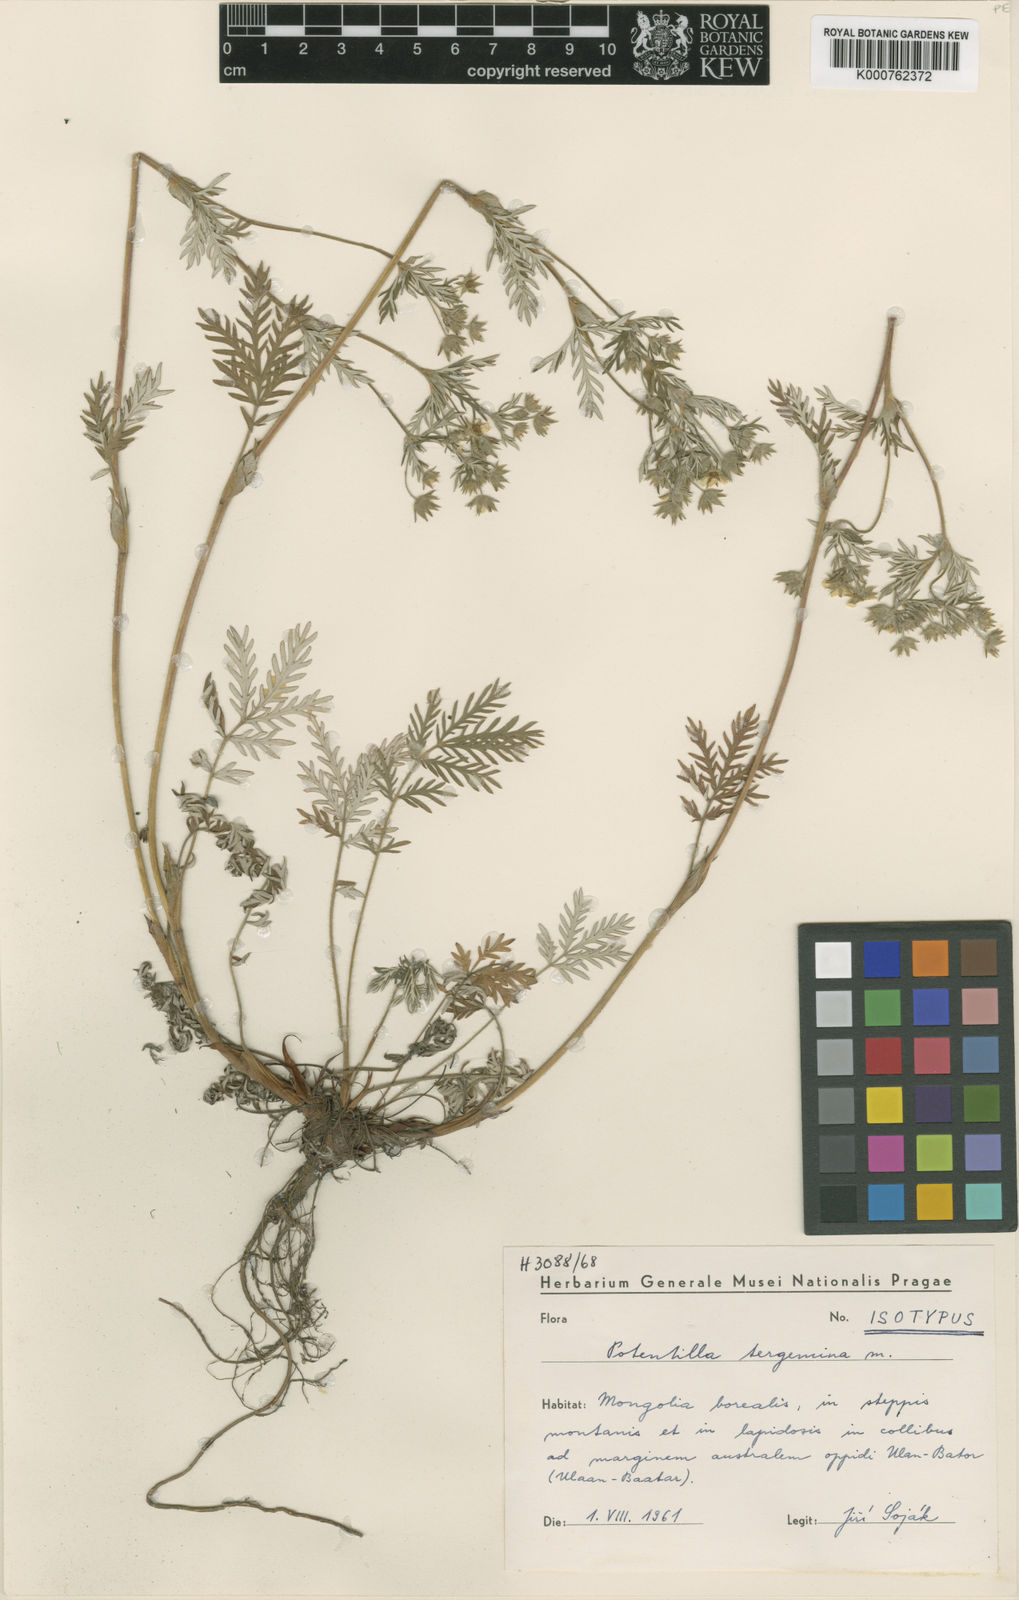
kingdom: Plantae
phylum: Tracheophyta
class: Magnoliopsida
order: Rosales
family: Rosaceae
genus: Potentilla
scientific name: Potentilla
